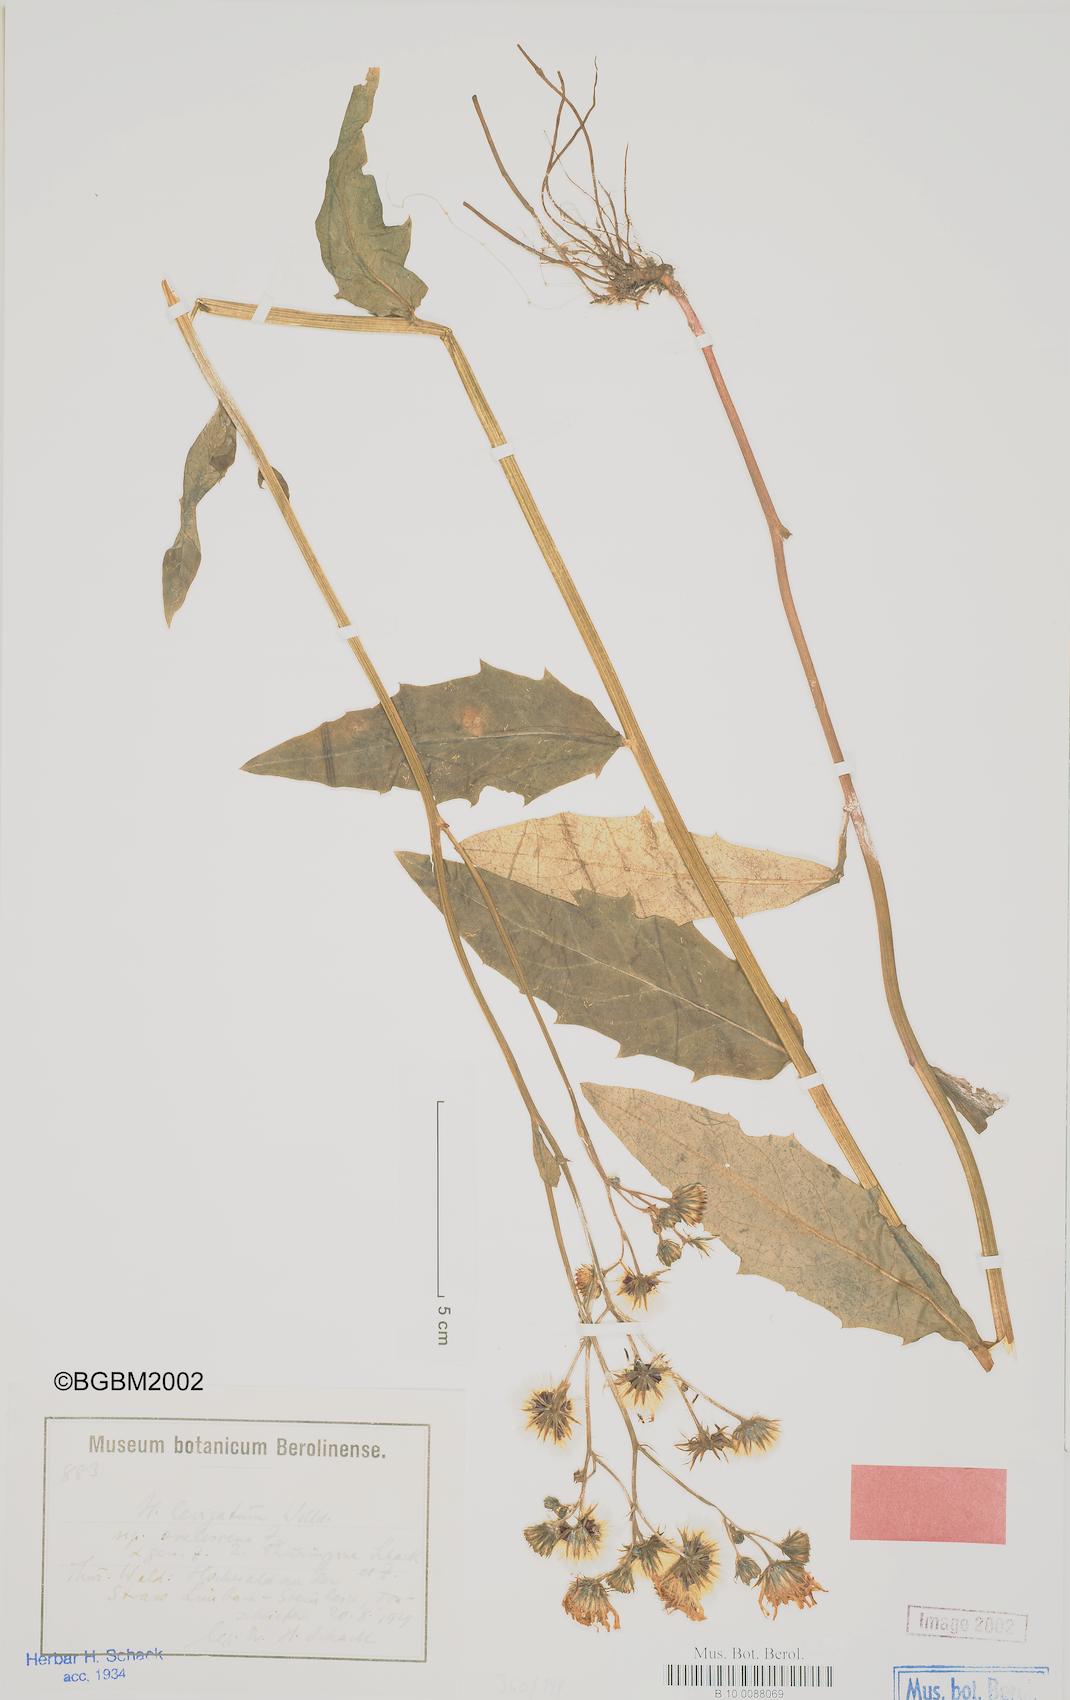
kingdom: Plantae
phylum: Tracheophyta
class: Magnoliopsida
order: Asterales
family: Asteraceae
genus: Hieracium
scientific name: Hieracium laevigatum
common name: Smooth hawkweed
